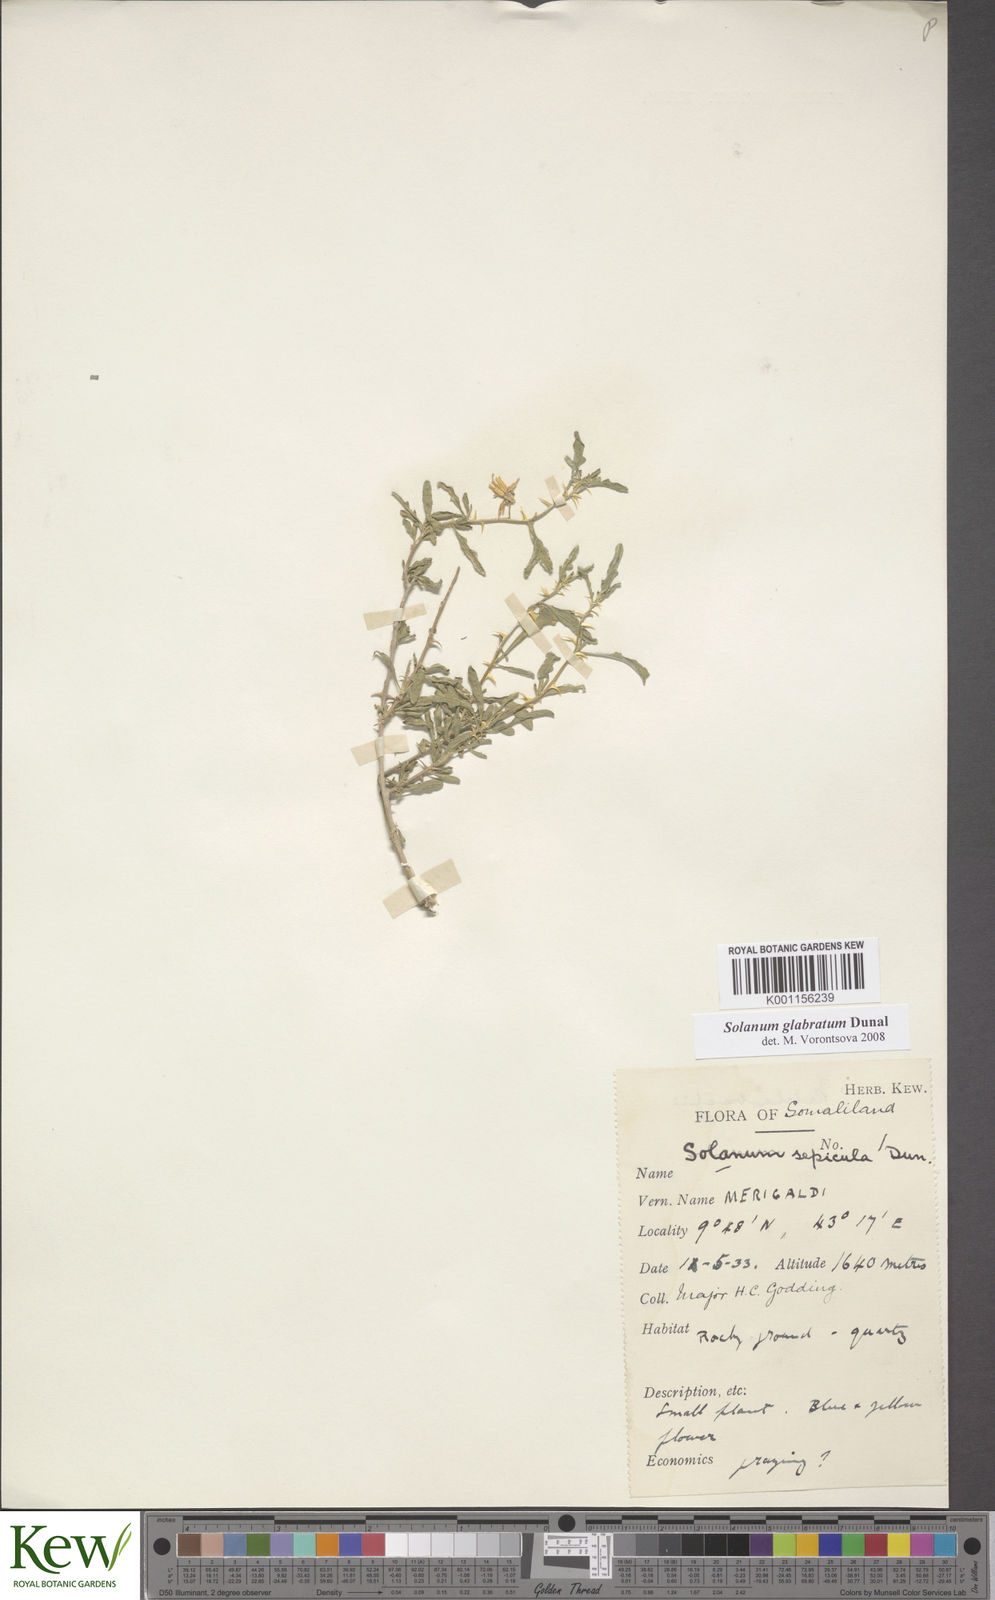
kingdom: Plantae
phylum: Tracheophyta
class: Magnoliopsida
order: Solanales
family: Solanaceae
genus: Solanum
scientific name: Solanum glabratum
